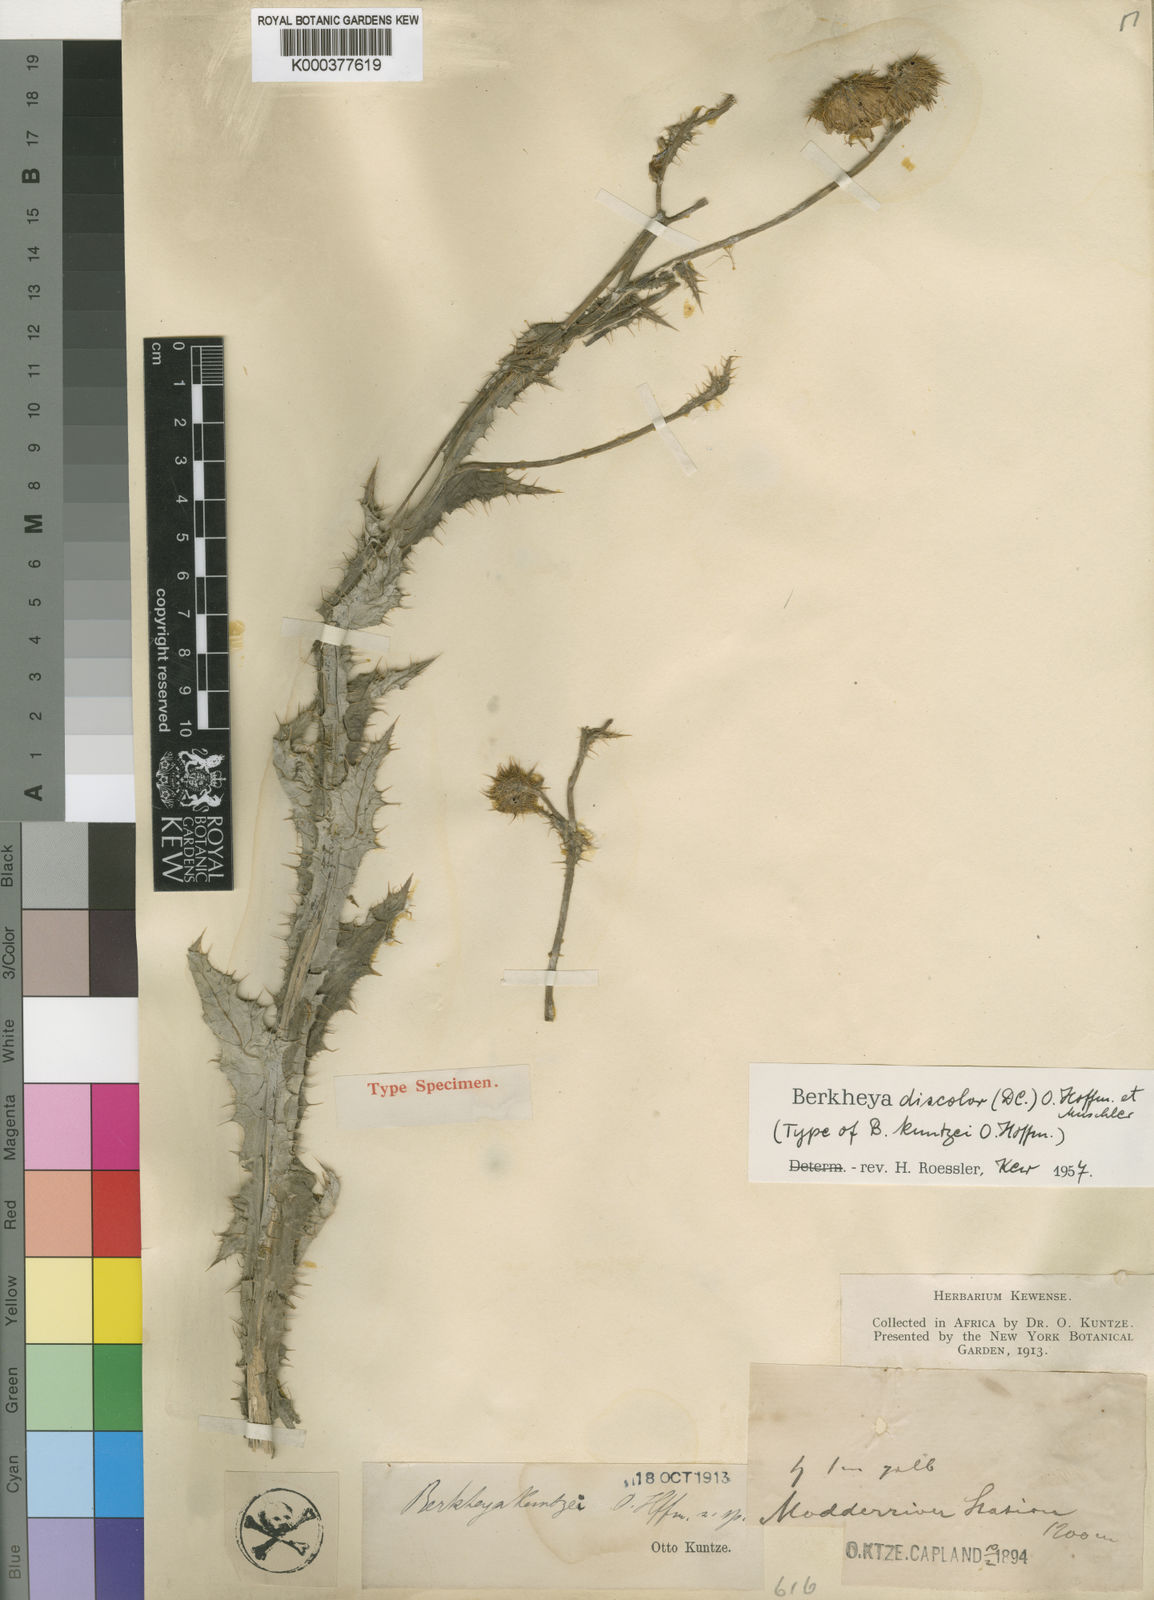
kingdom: Plantae
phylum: Tracheophyta
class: Magnoliopsida
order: Asterales
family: Asteraceae
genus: Berkheya
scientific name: Berkheya discolor
